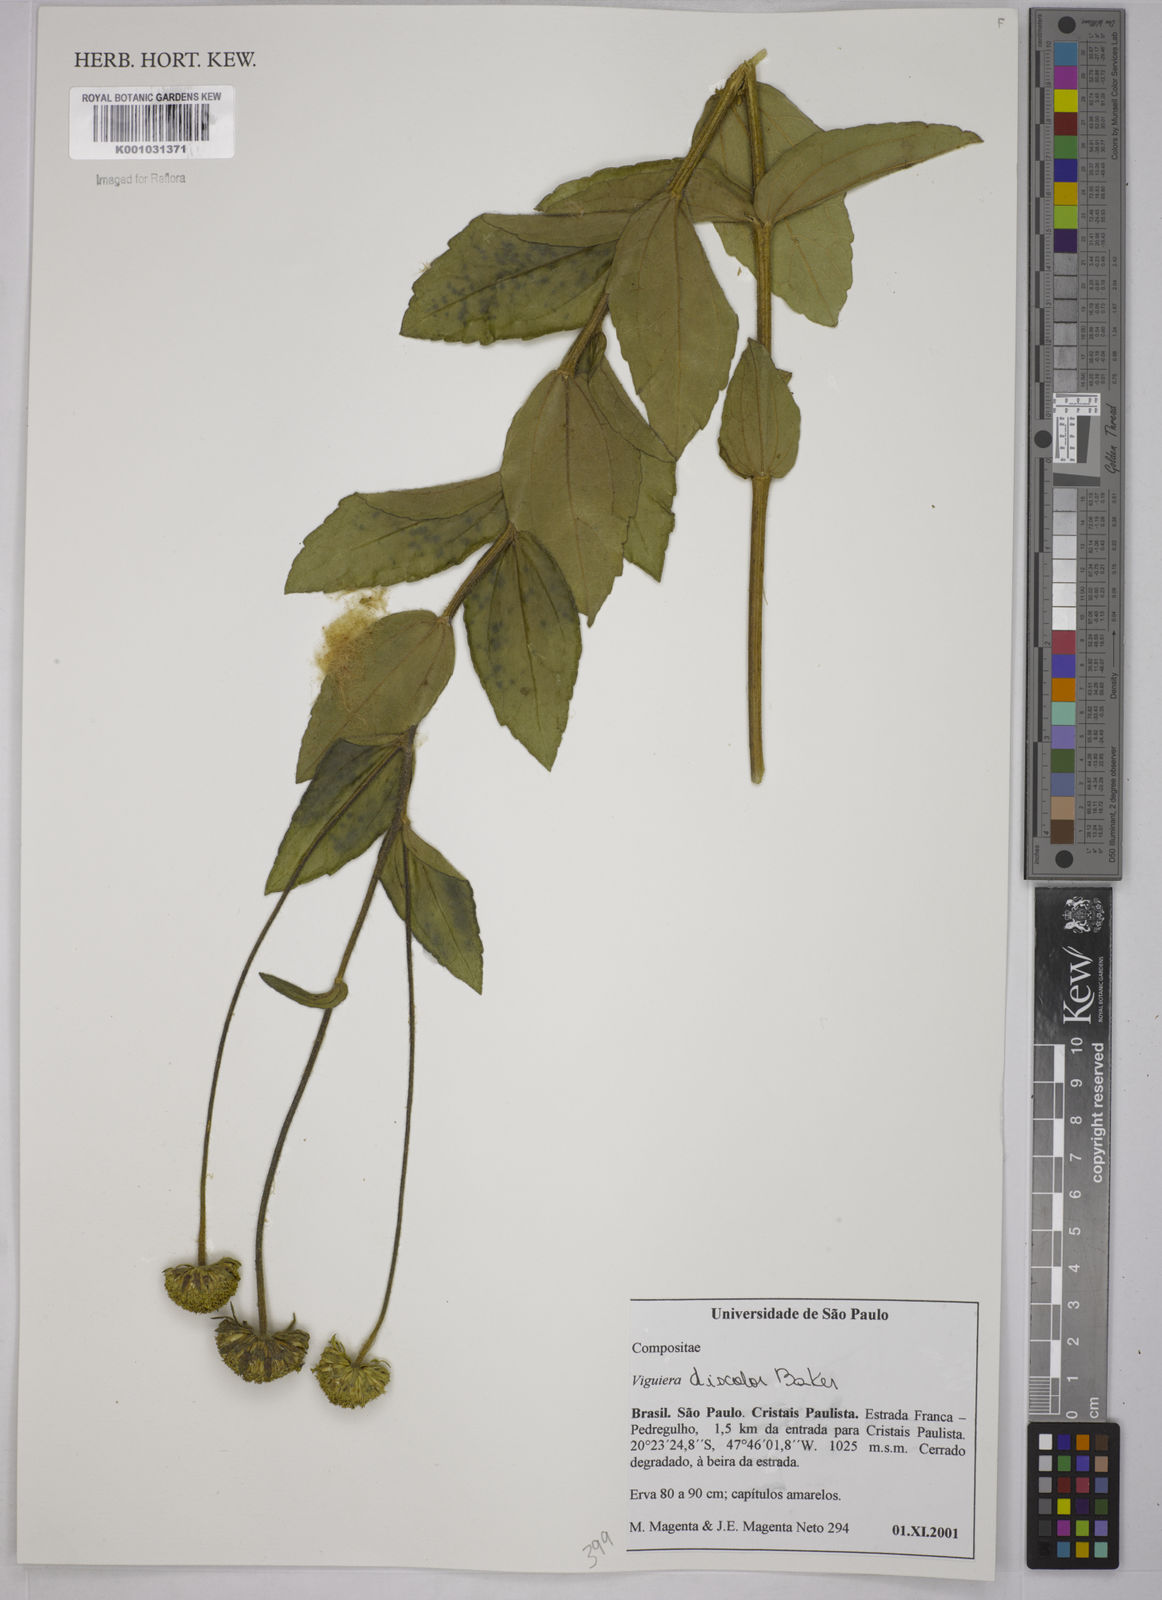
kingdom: Plantae
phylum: Tracheophyta
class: Magnoliopsida
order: Asterales
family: Asteraceae
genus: Aldama
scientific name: Aldama discolor
